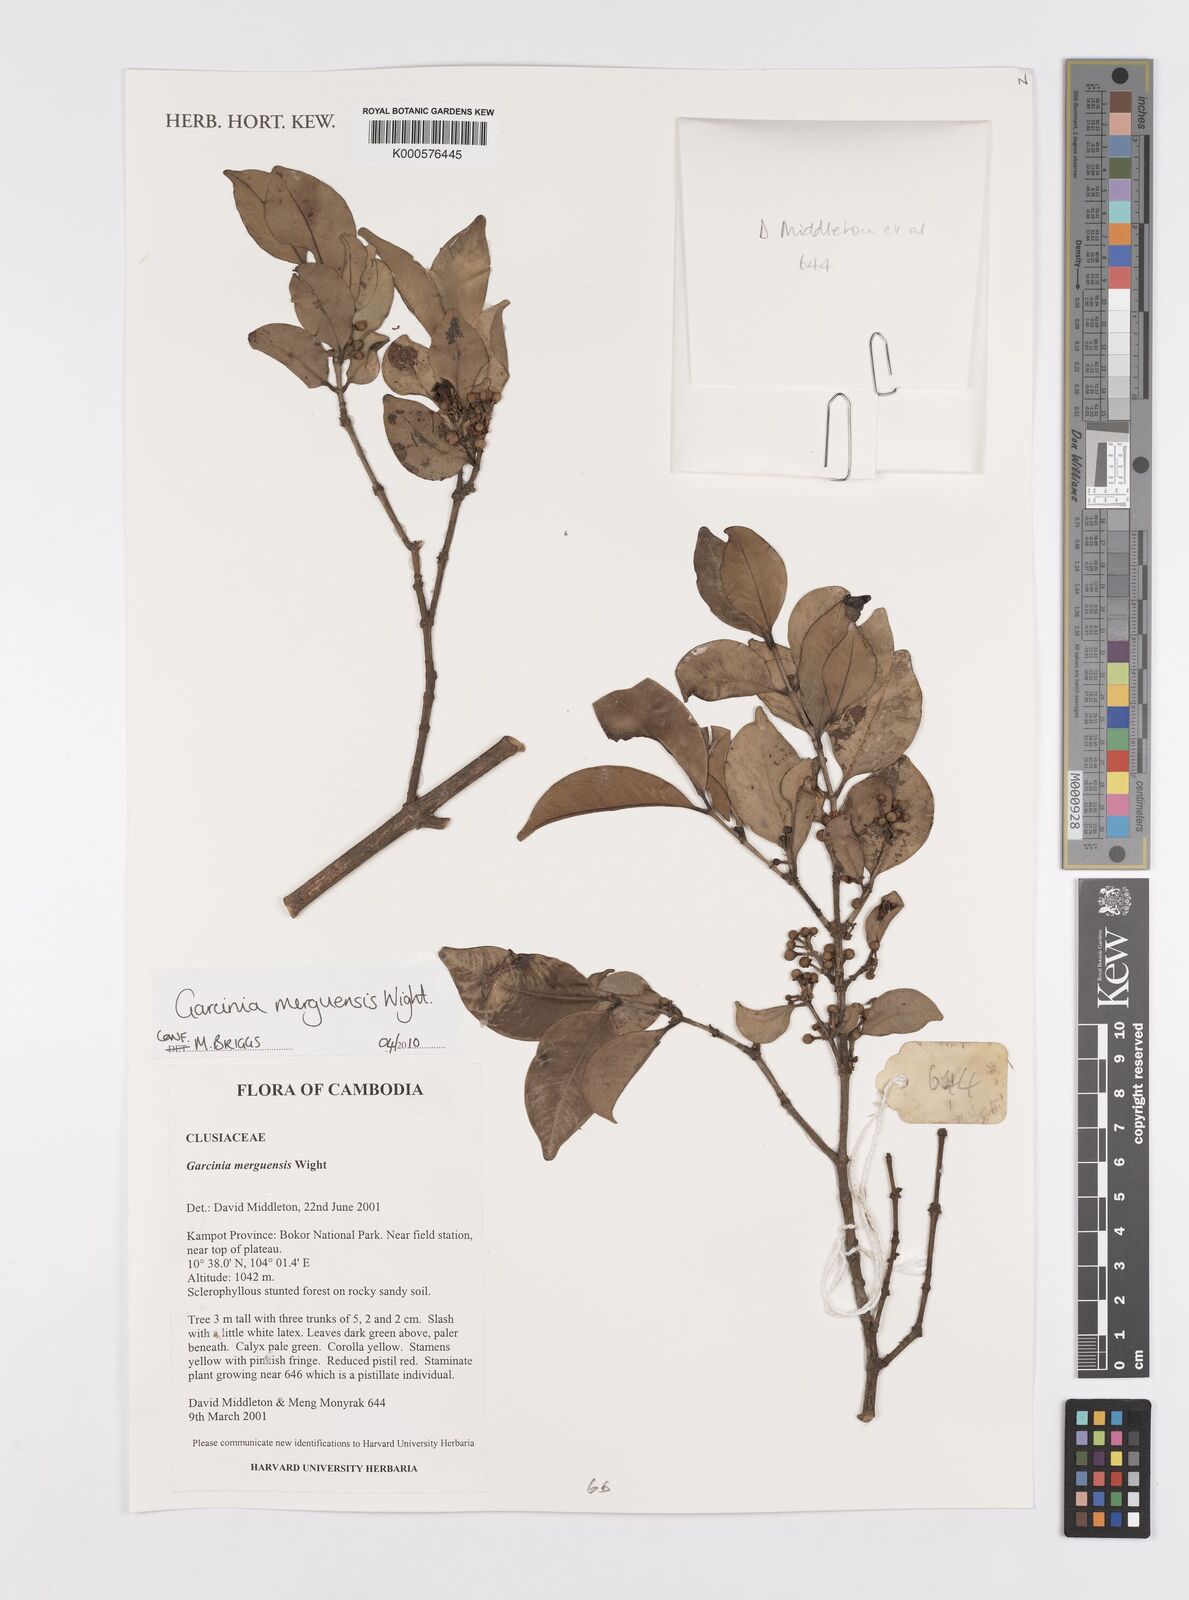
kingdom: Plantae
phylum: Tracheophyta
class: Magnoliopsida
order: Malpighiales
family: Clusiaceae
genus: Garcinia
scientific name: Garcinia merguensis
